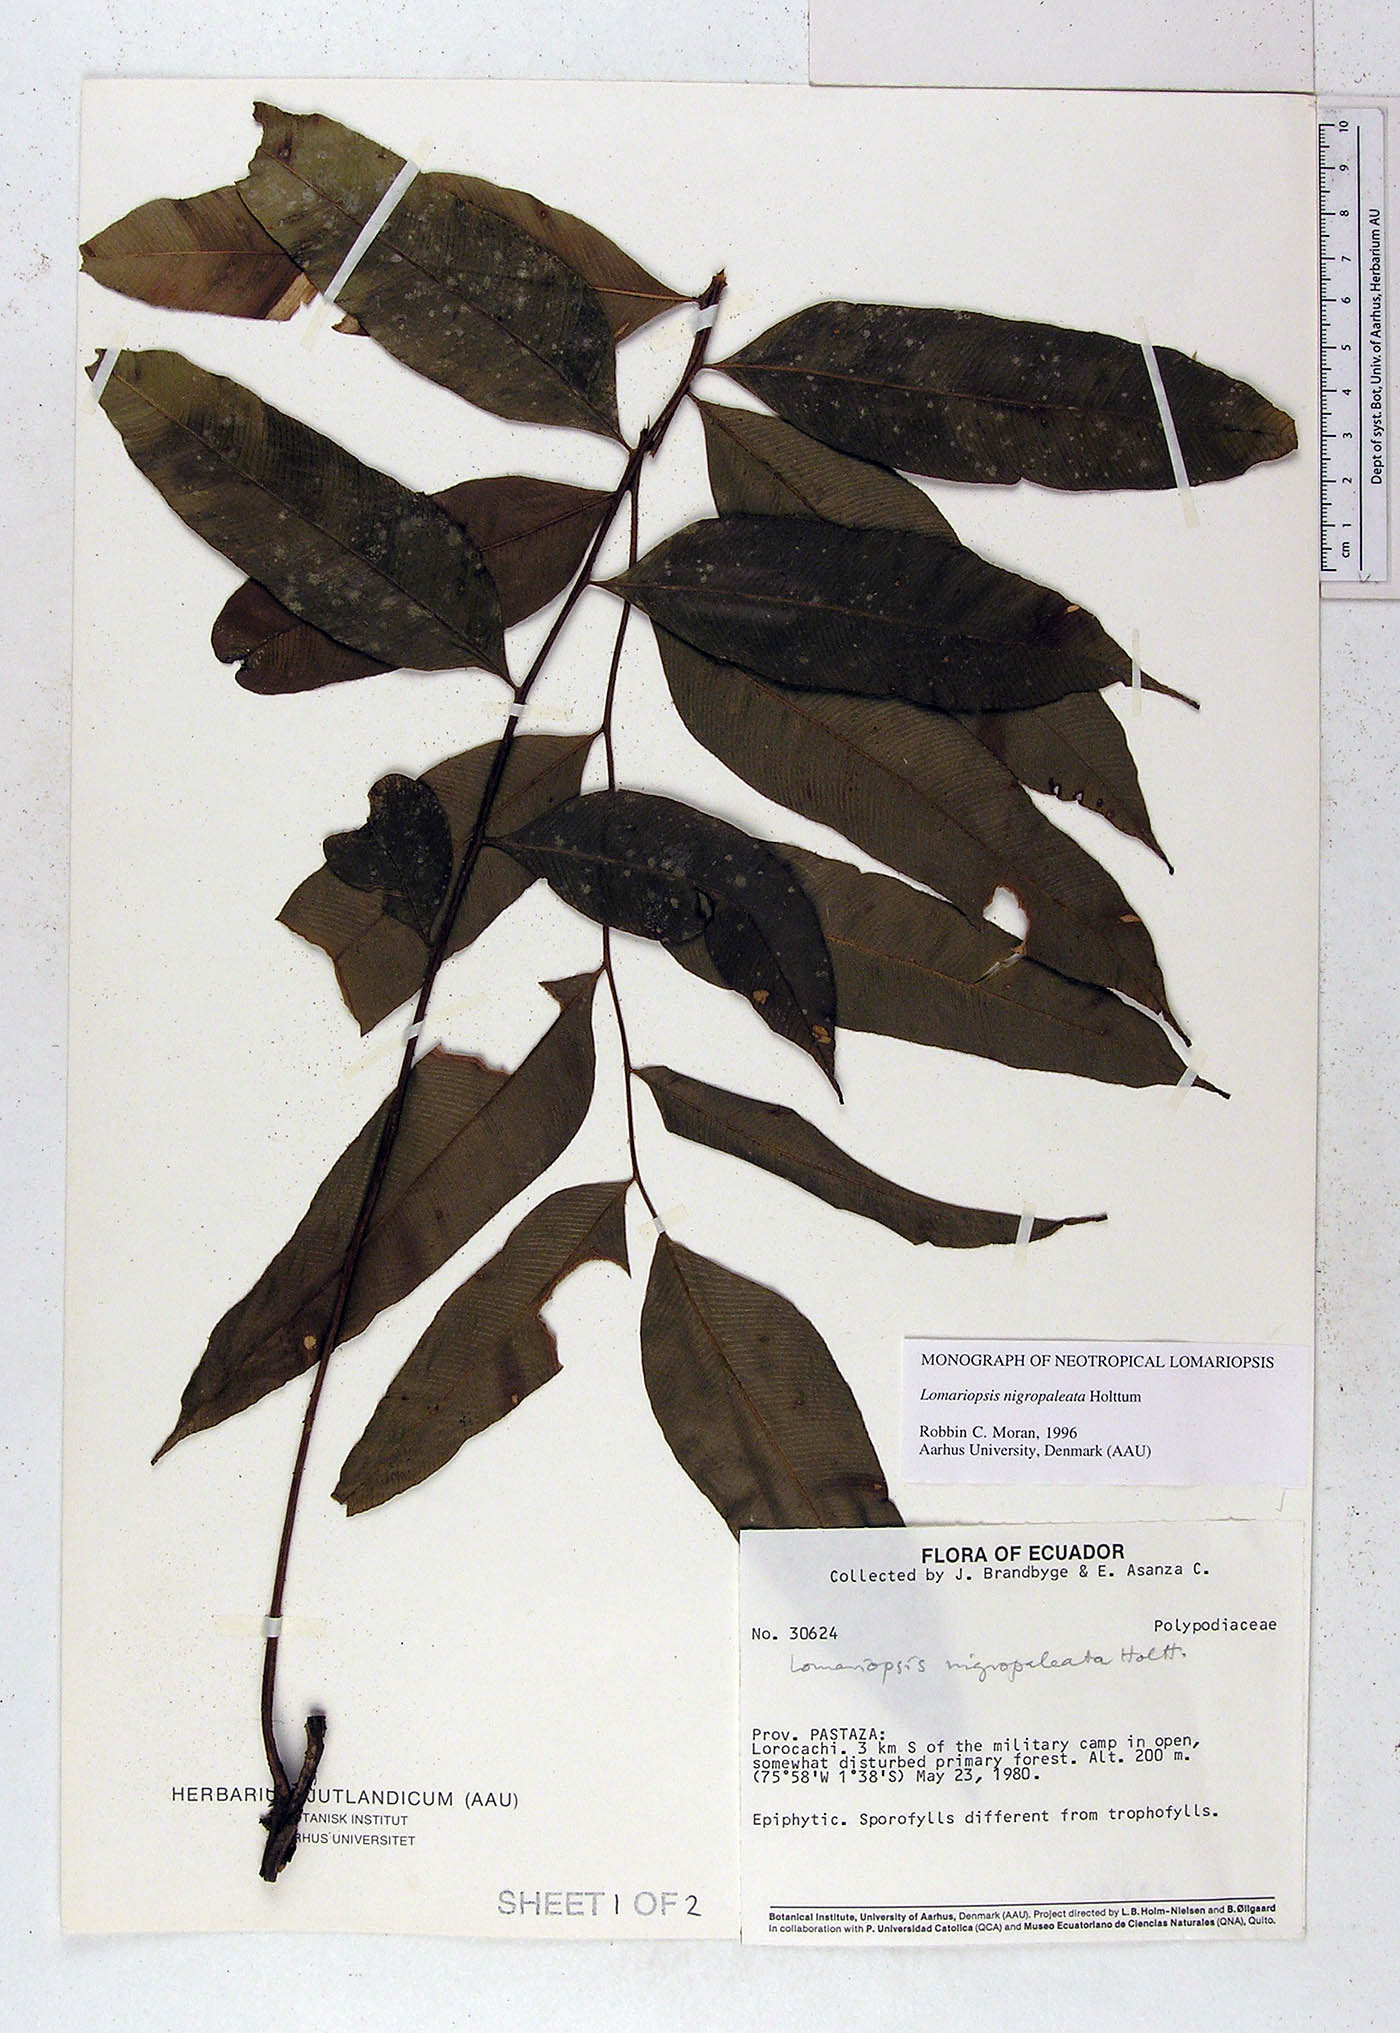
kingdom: Plantae
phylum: Tracheophyta
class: Polypodiopsida
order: Polypodiales
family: Lomariopsidaceae
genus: Lomariopsis
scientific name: Lomariopsis nigropaleata
